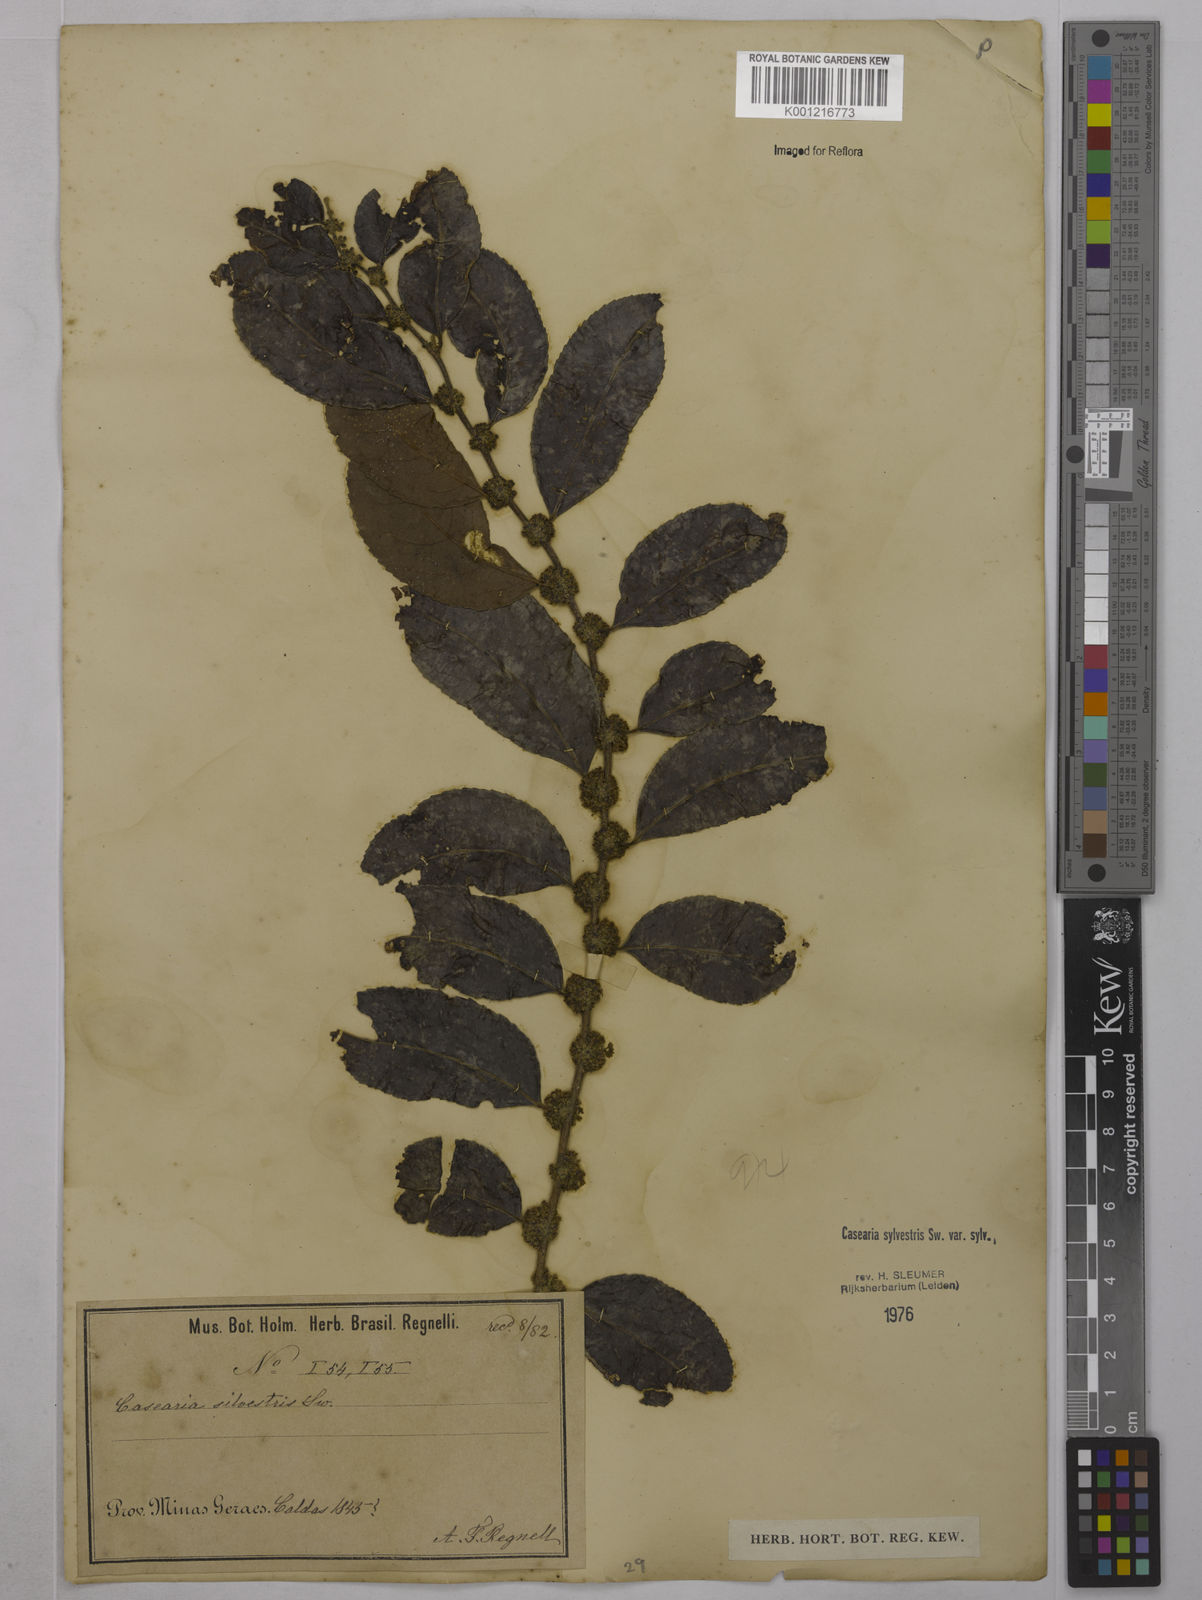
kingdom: Plantae
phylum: Tracheophyta
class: Magnoliopsida
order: Malpighiales
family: Salicaceae
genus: Casearia
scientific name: Casearia sylvestris
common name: Wild sage
